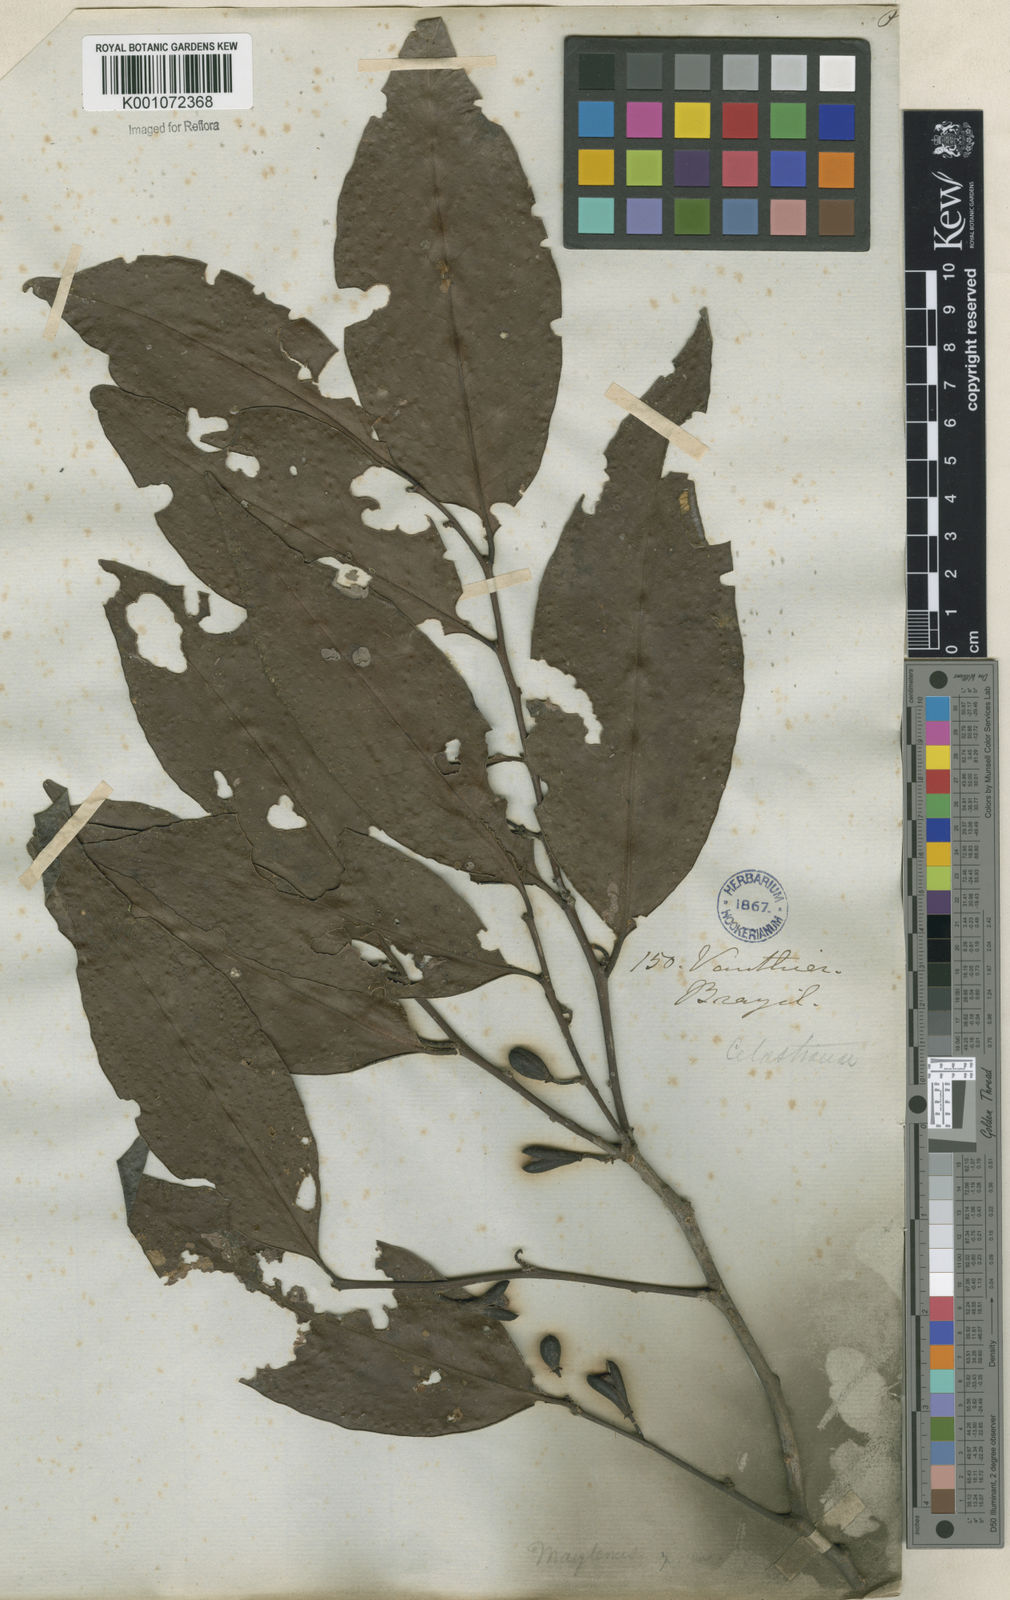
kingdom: Plantae
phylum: Tracheophyta
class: Magnoliopsida
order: Celastrales
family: Celastraceae
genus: Maytenus
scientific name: Maytenus
